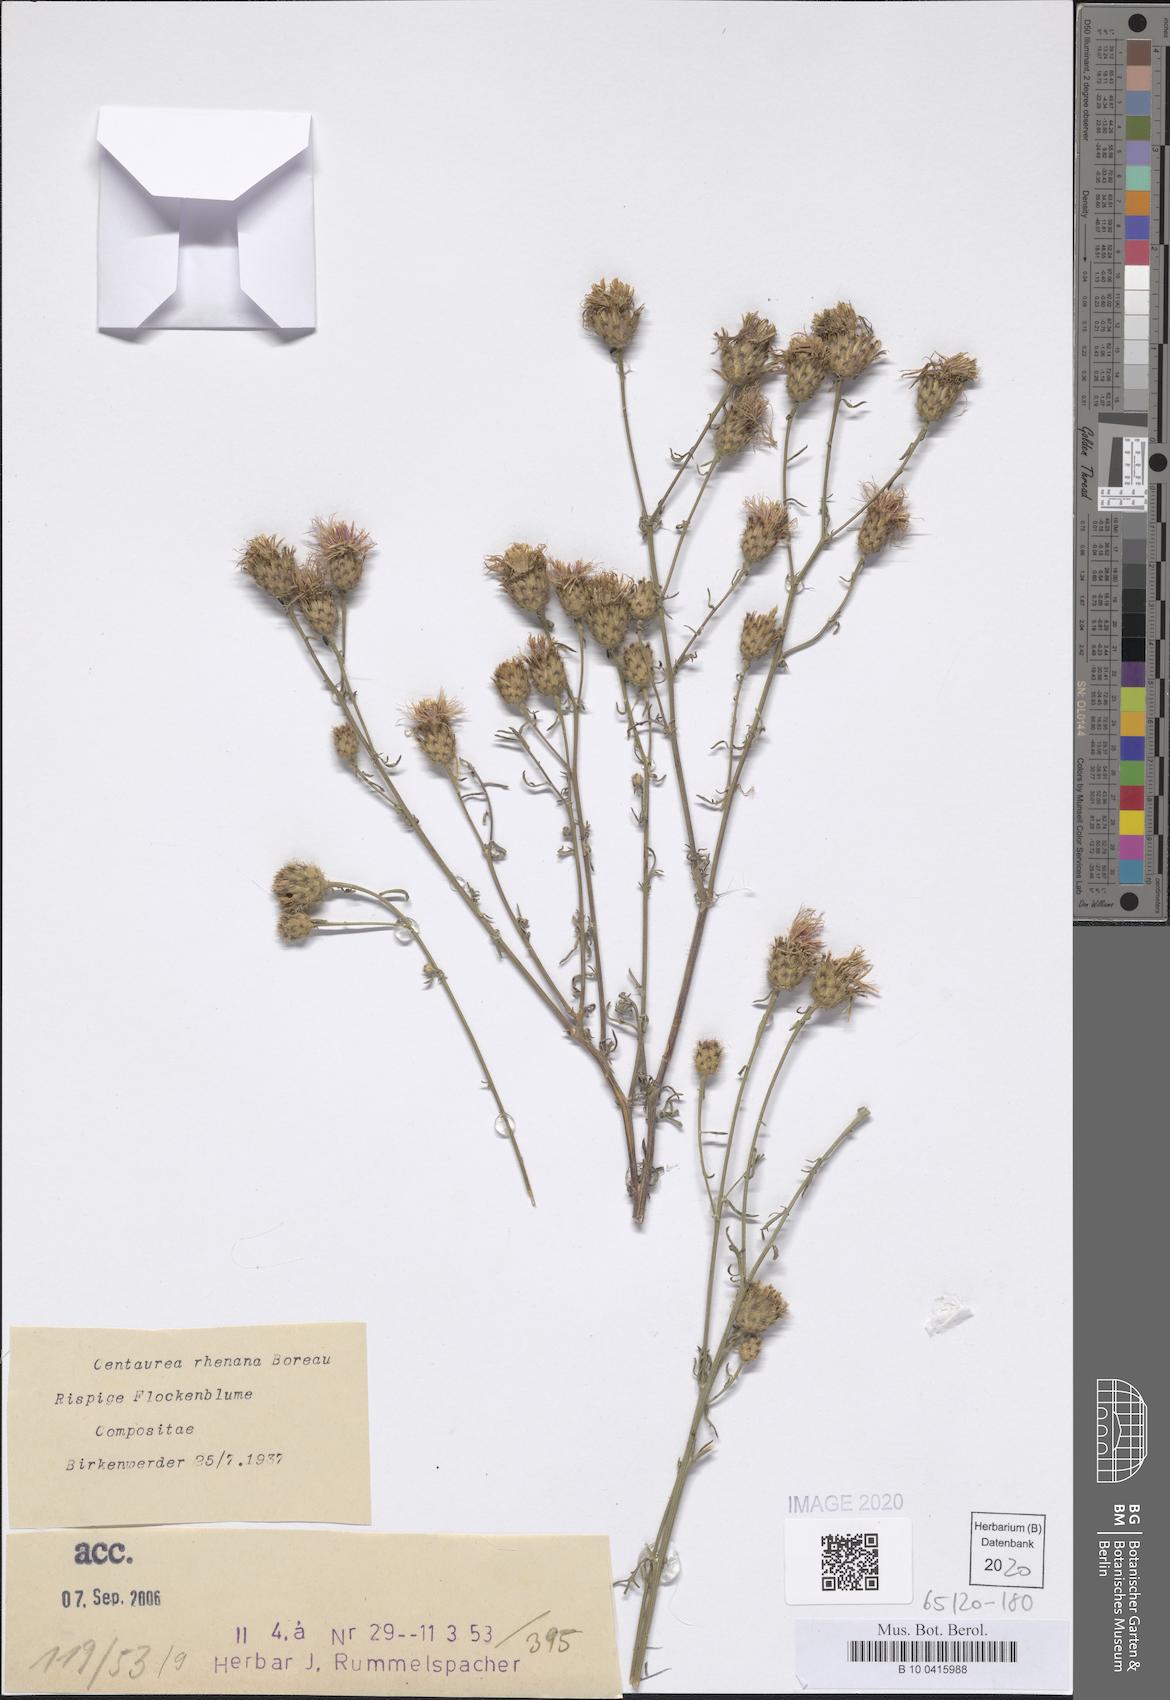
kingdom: Plantae
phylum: Tracheophyta
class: Magnoliopsida
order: Asterales
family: Asteraceae
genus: Centaurea
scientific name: Centaurea stoebe
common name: Spotted knapweed
